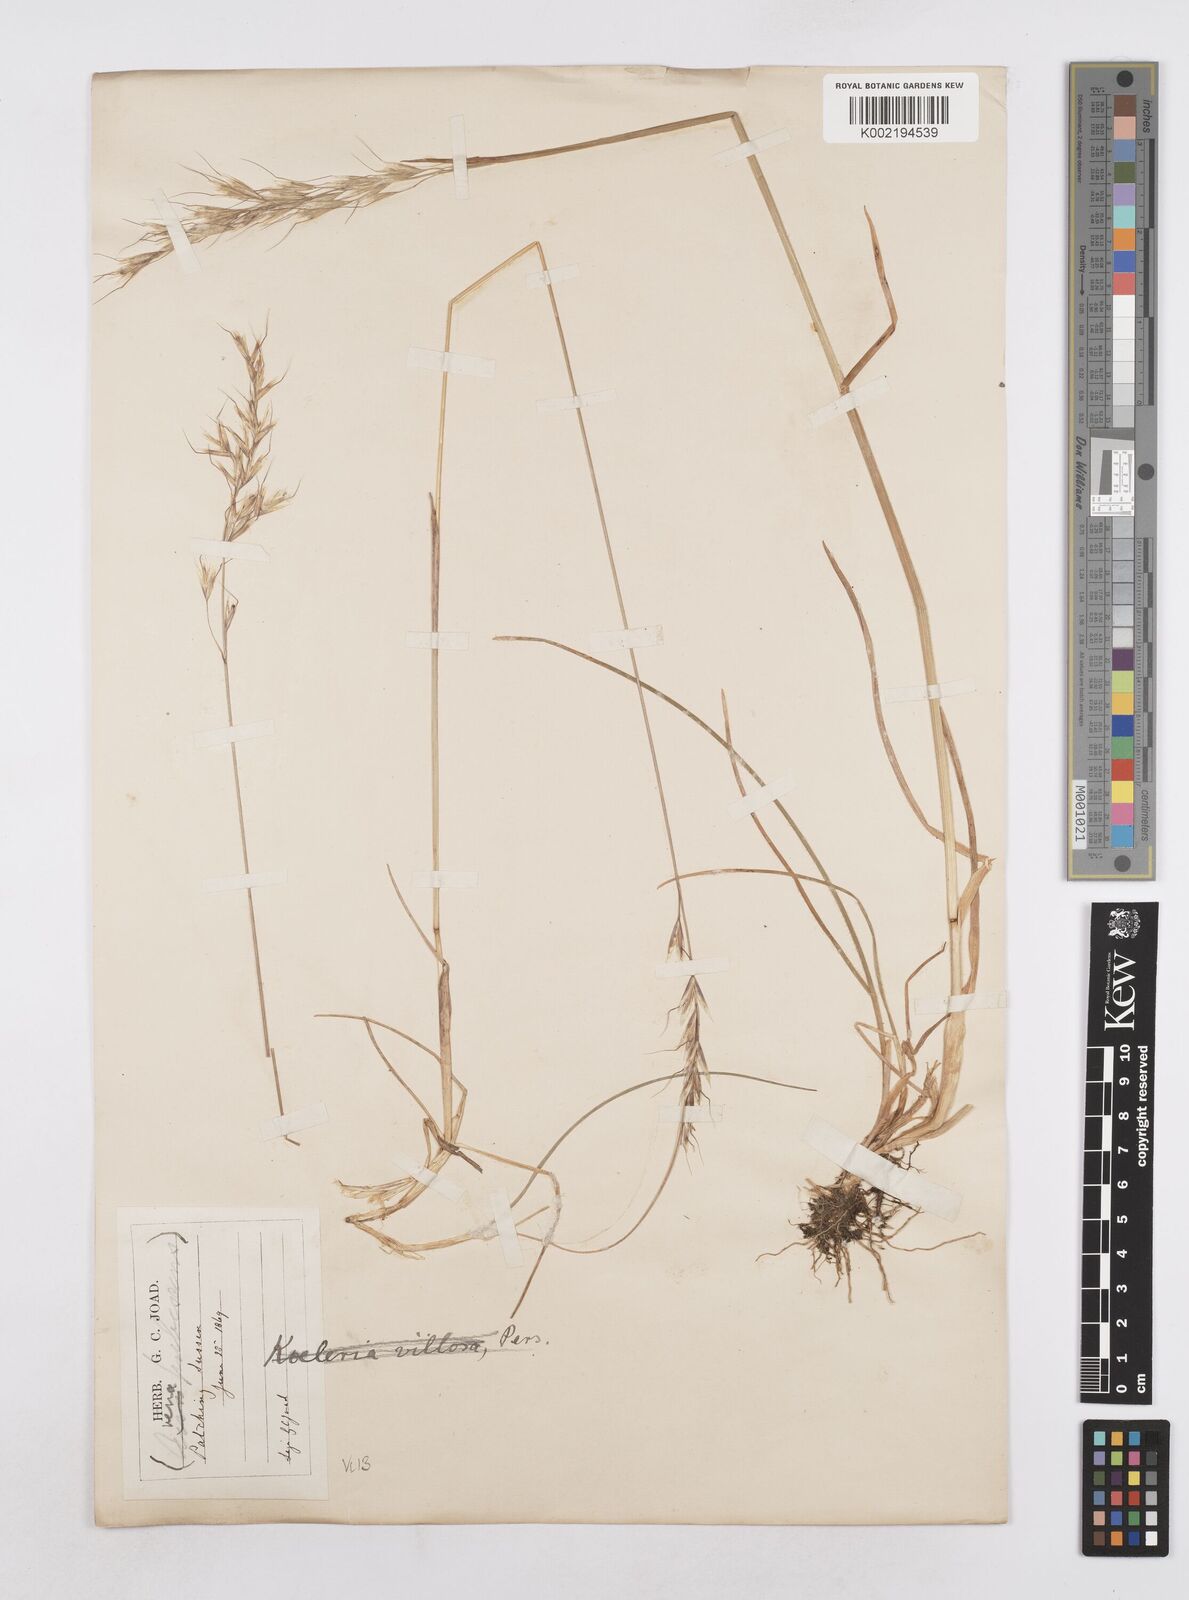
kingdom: Plantae
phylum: Tracheophyta
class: Liliopsida
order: Poales
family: Poaceae
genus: Avenula
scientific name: Avenula pubescens
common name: Downy alpine oatgrass
